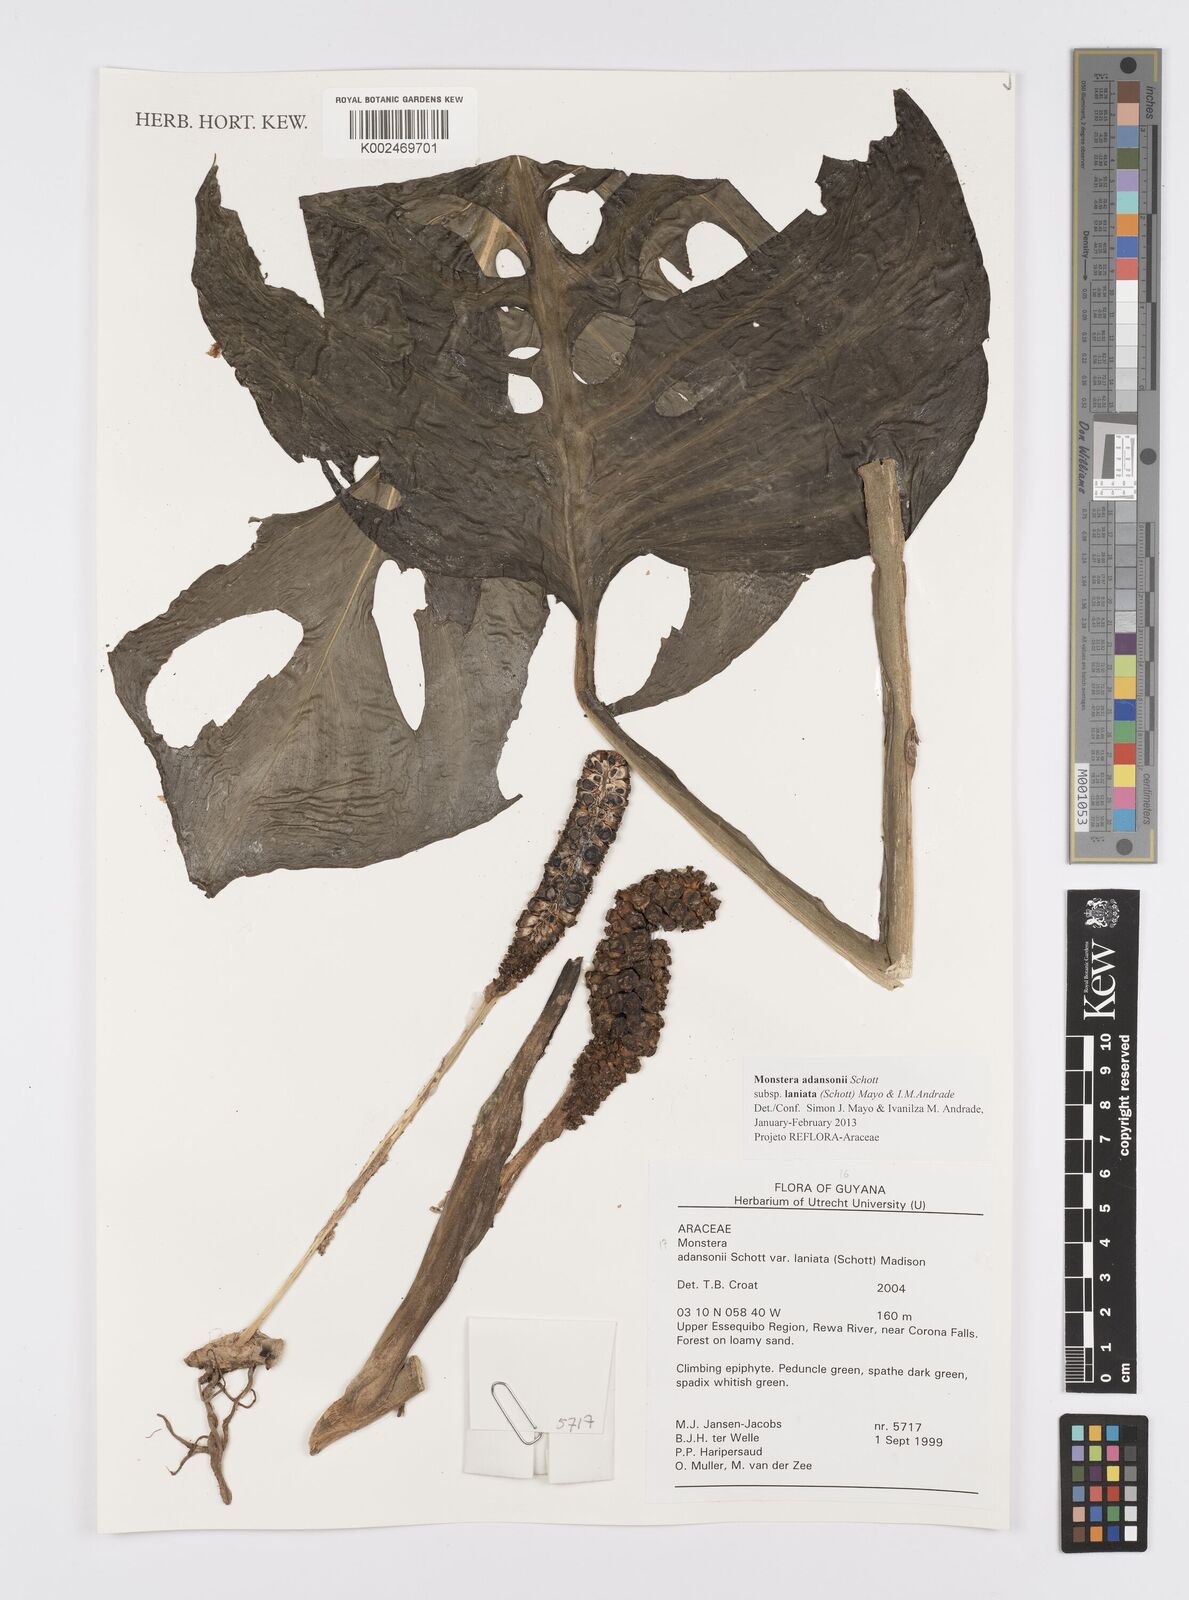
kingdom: Plantae
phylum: Tracheophyta
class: Liliopsida
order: Alismatales
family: Araceae
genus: Monstera
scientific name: Monstera adansonii
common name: Tarovine
